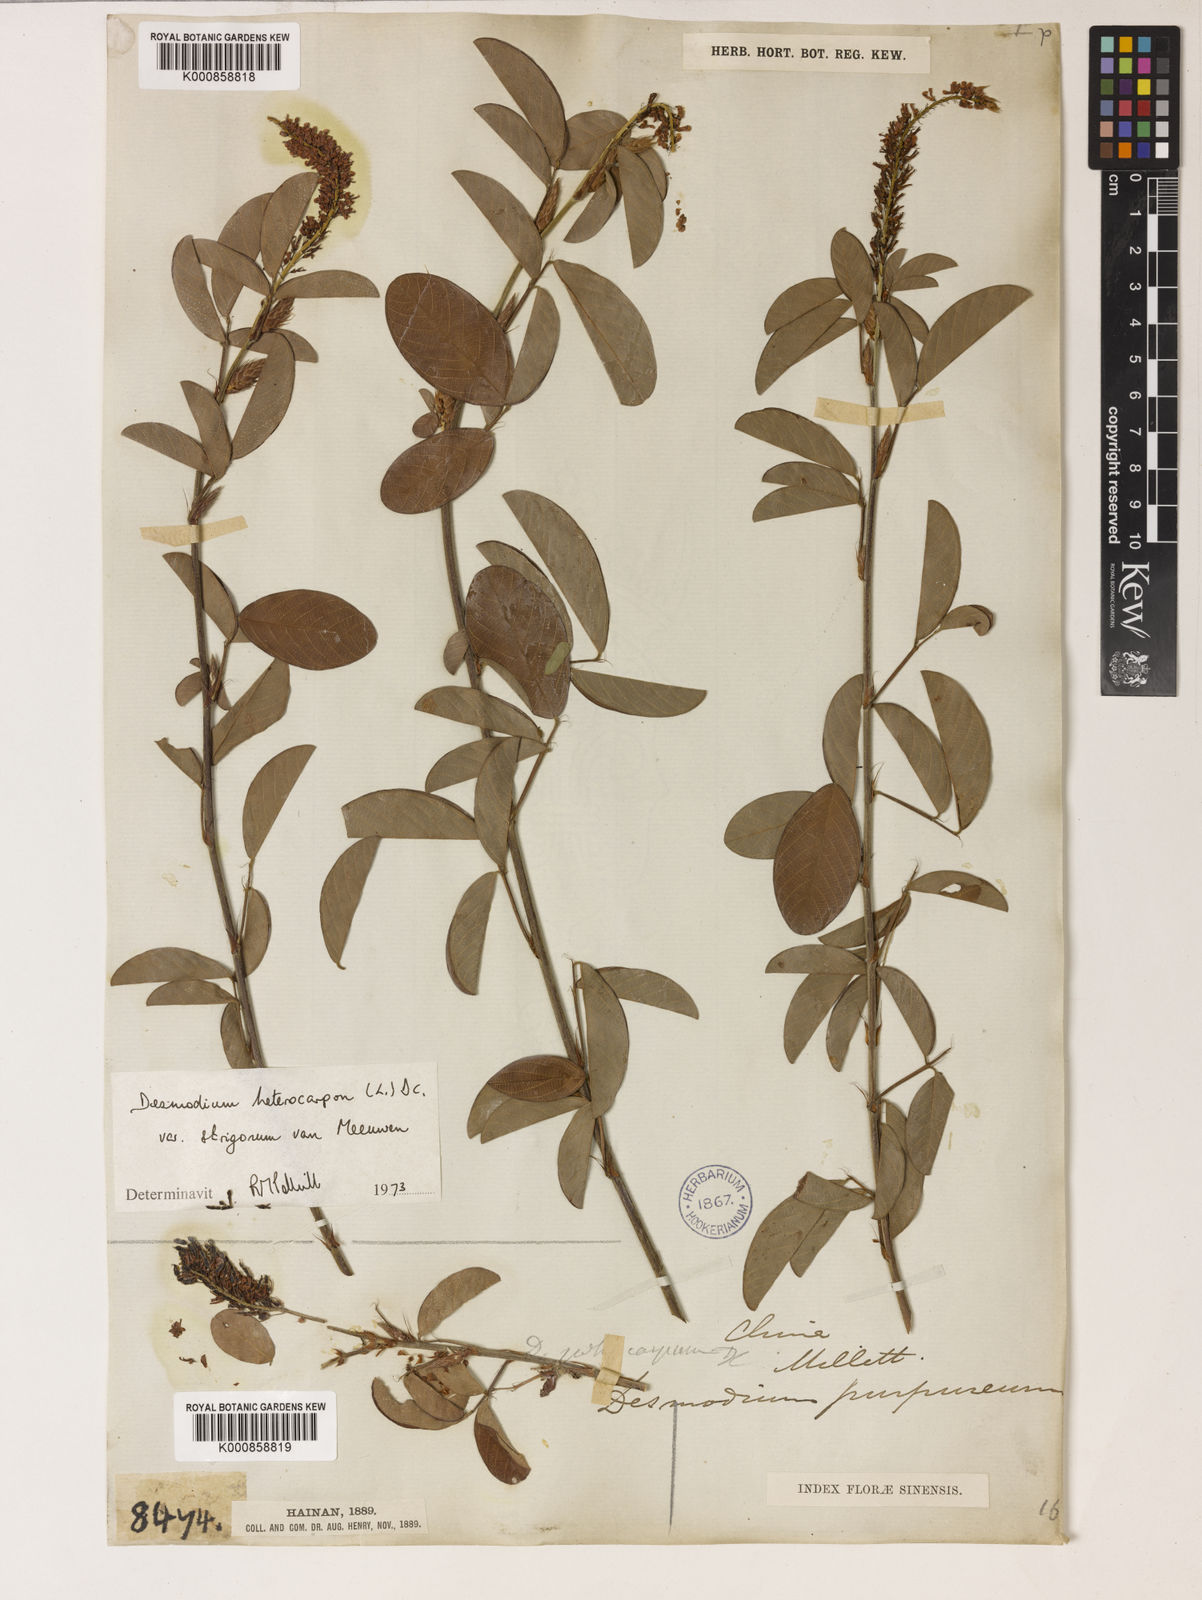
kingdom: Plantae
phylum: Tracheophyta
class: Magnoliopsida
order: Fabales
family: Fabaceae
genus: Grona
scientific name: Grona heterocarpos
